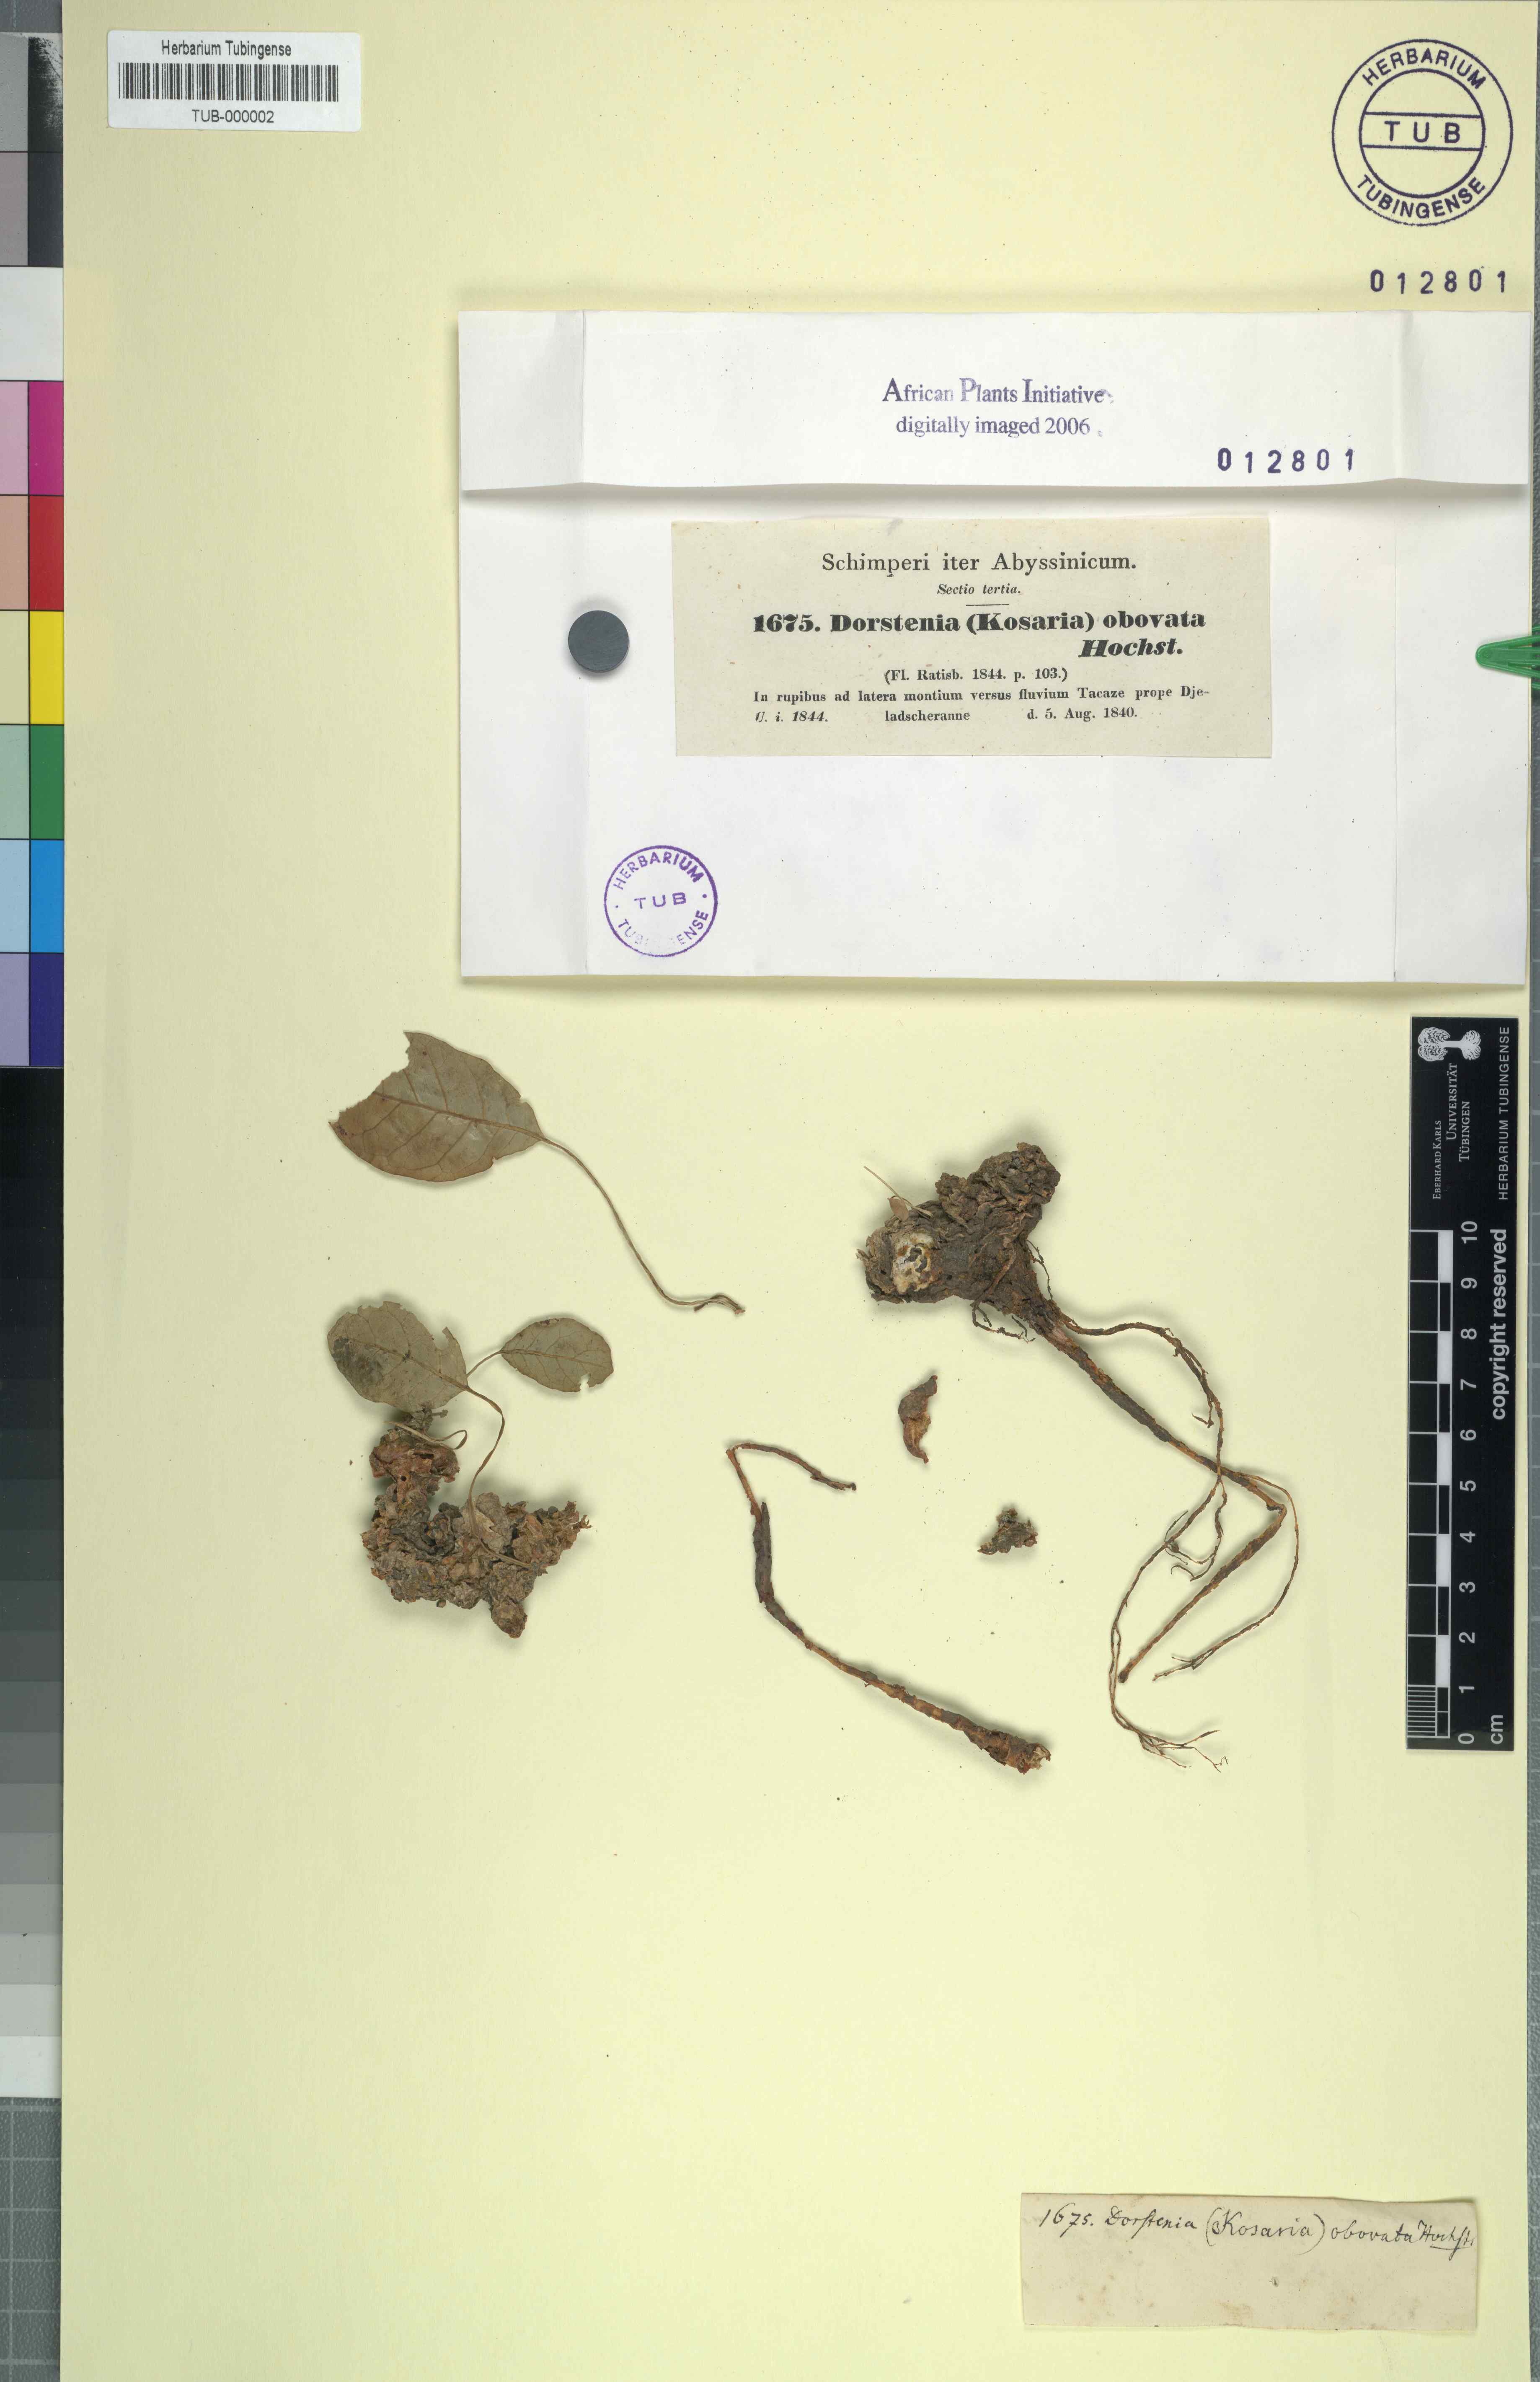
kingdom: Plantae
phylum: Tracheophyta
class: Magnoliopsida
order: Rosales
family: Moraceae
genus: Dorstenia
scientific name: Dorstenia foetida
